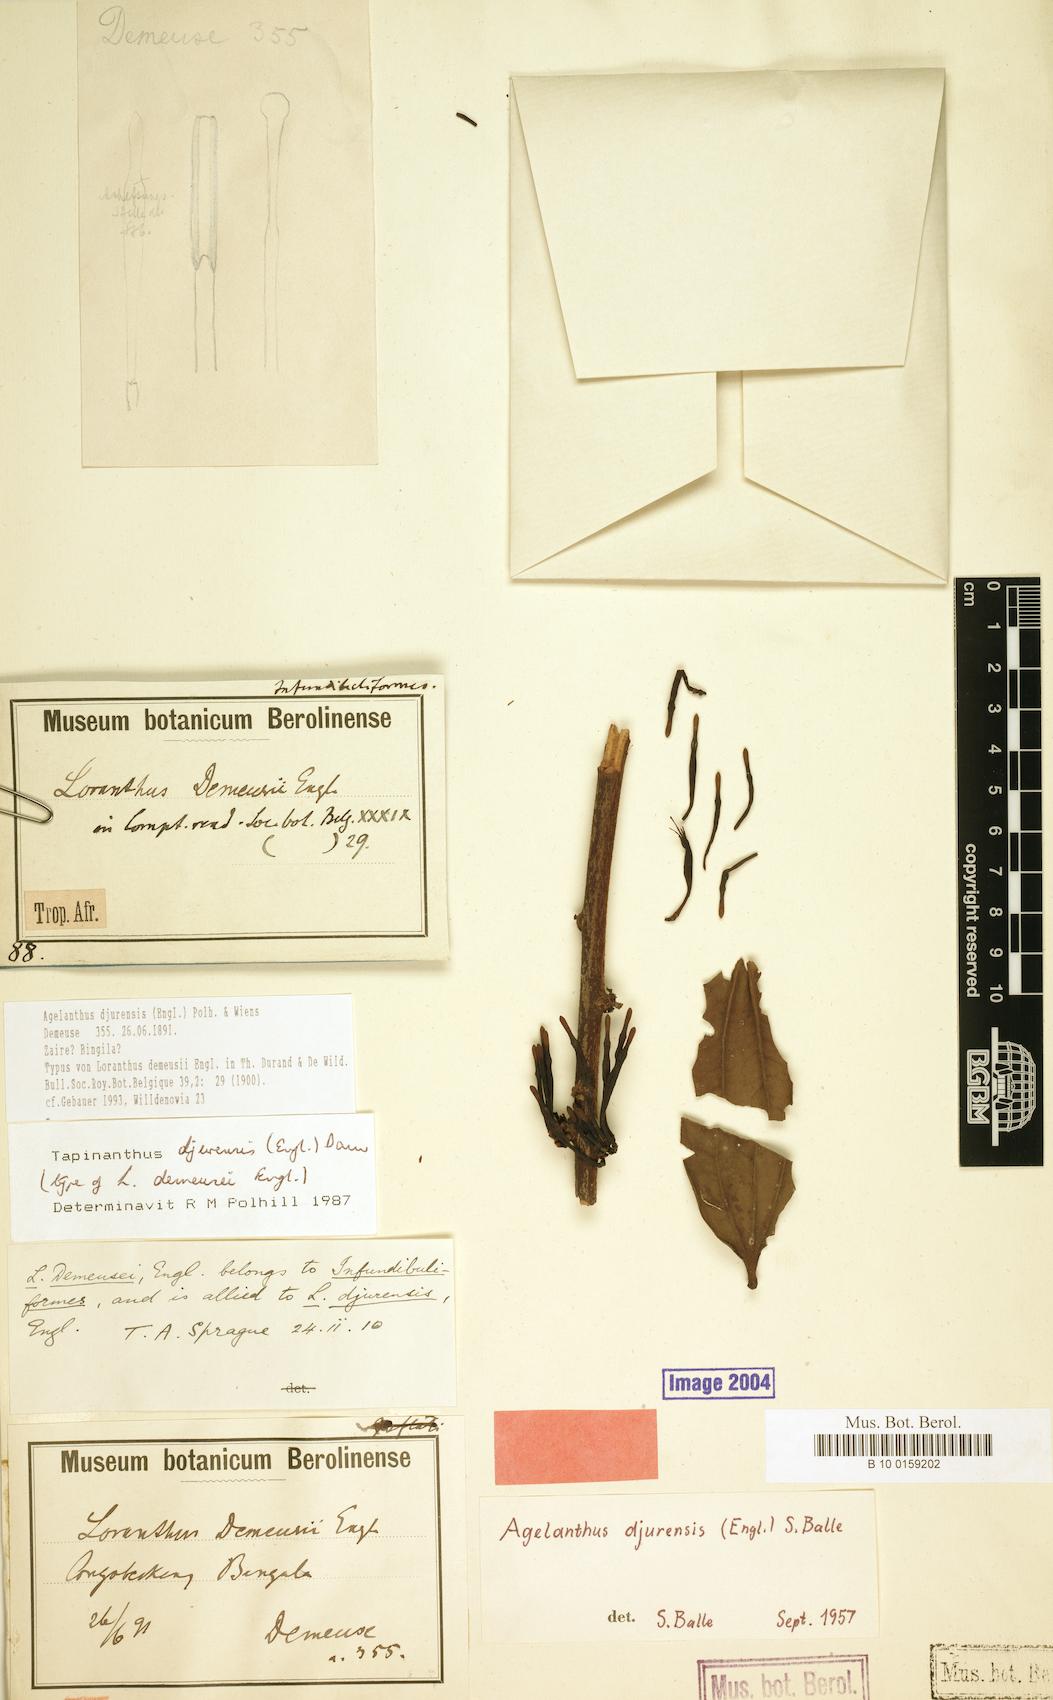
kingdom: Plantae
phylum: Tracheophyta
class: Magnoliopsida
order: Santalales
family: Loranthaceae
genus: Agelanthus
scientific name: Agelanthus djurensis
